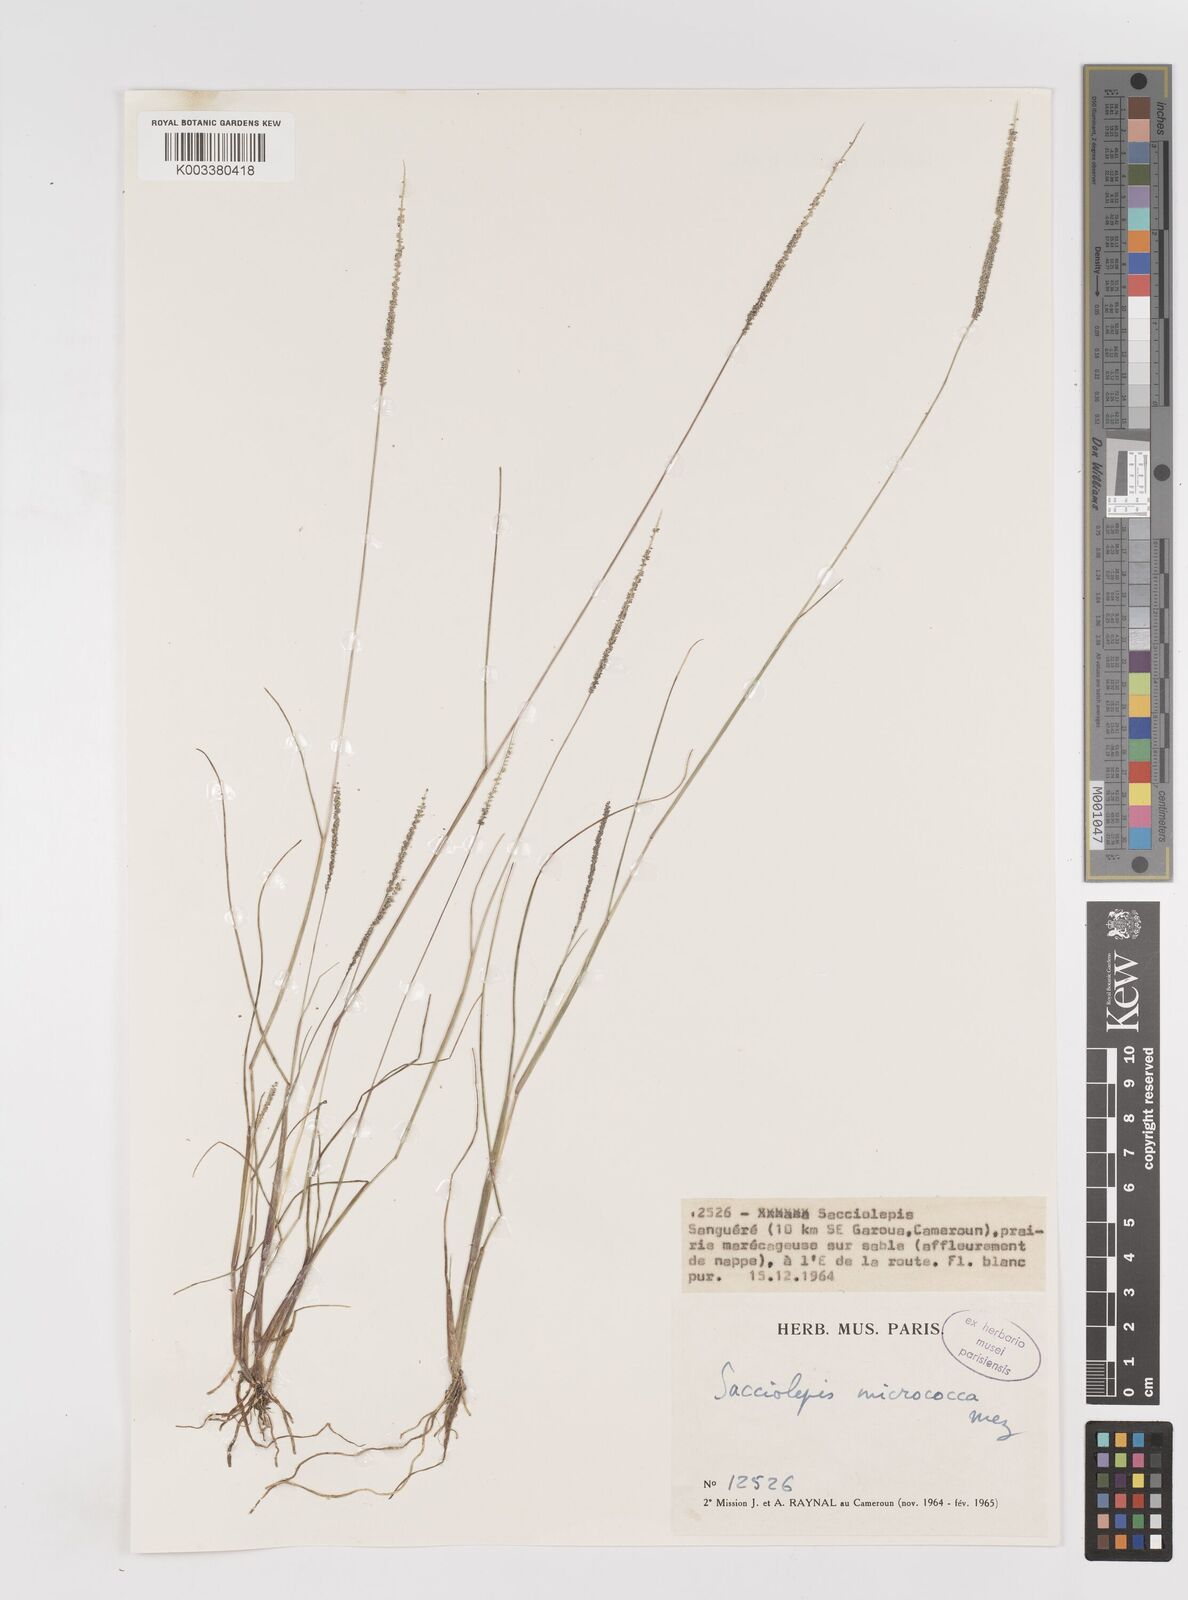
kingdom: Plantae
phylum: Tracheophyta
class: Liliopsida
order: Poales
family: Poaceae
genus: Sacciolepis
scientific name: Sacciolepis micrococca
